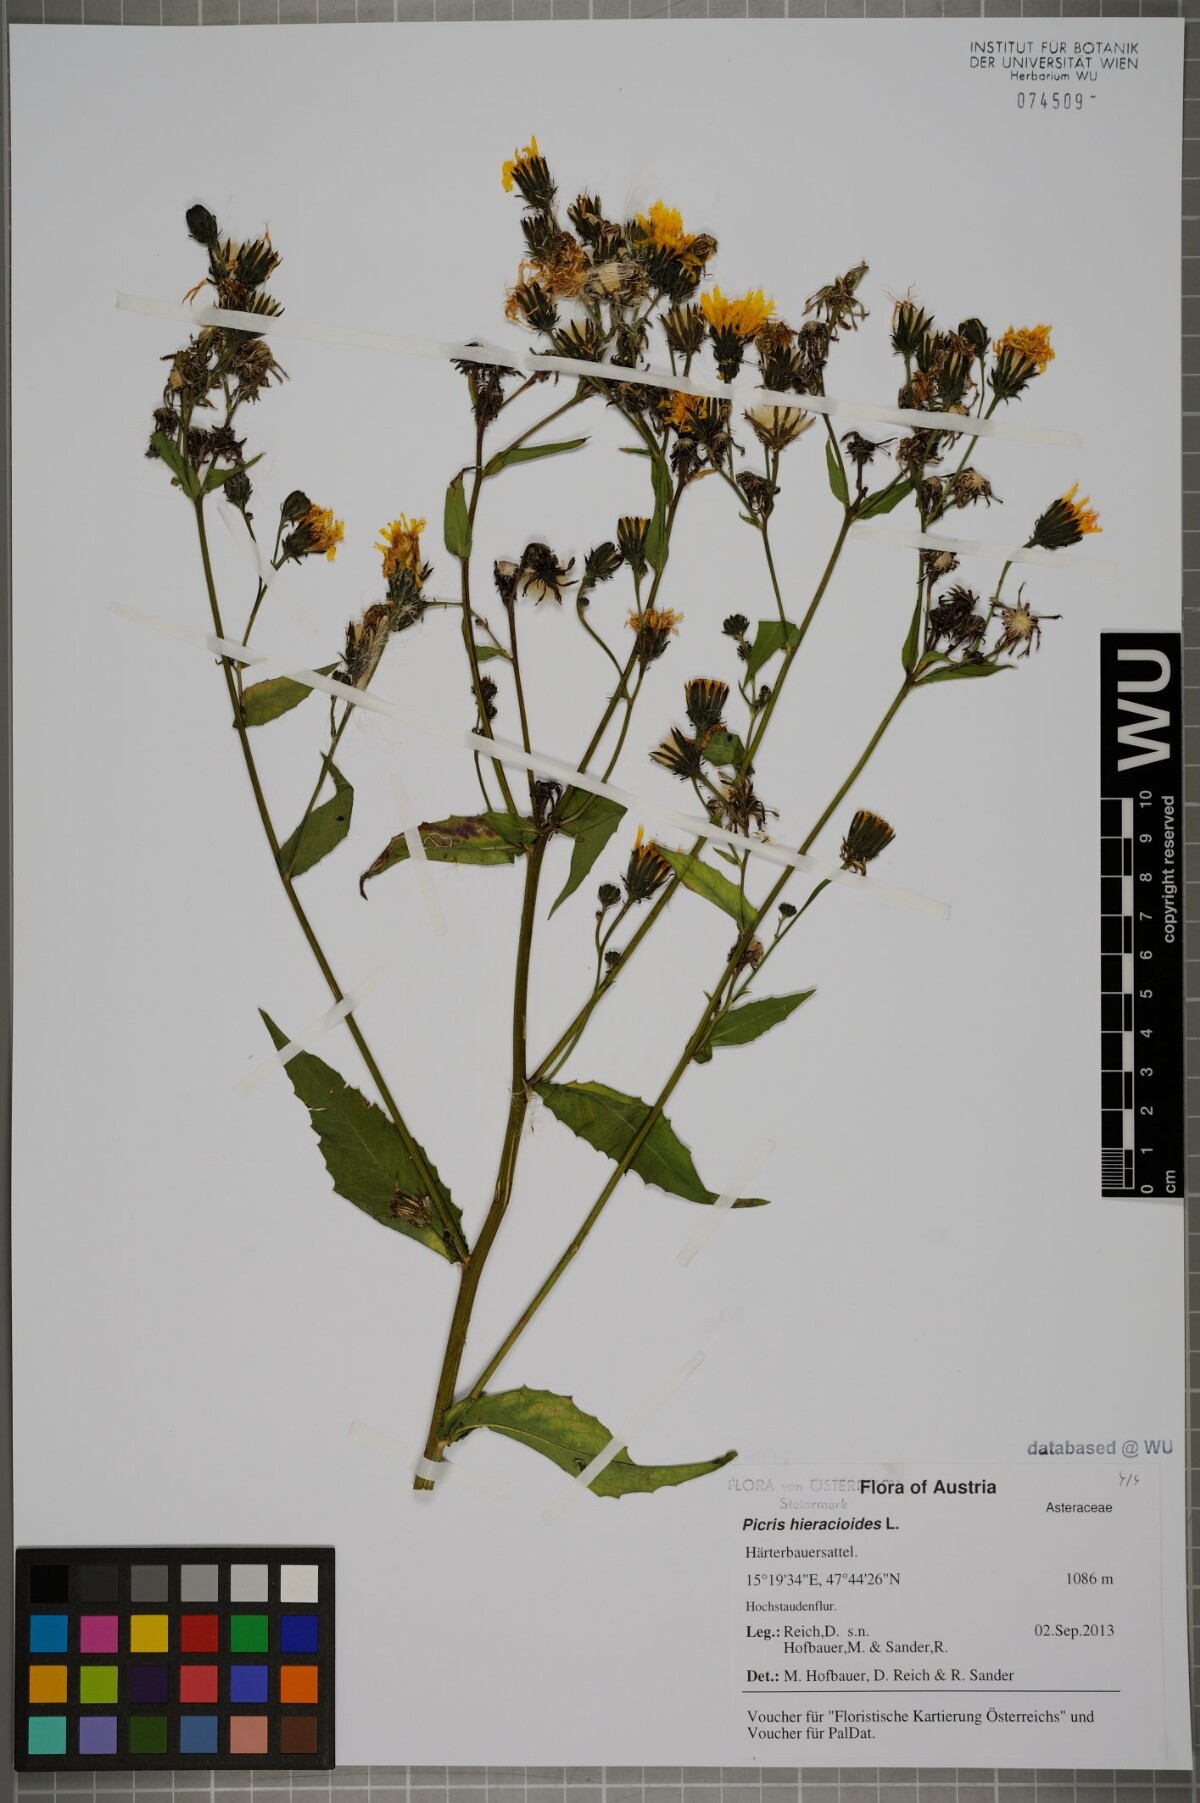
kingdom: Plantae
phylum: Tracheophyta
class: Magnoliopsida
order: Asterales
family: Asteraceae
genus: Picris
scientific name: Picris hieracioides
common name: Hawkweed oxtongue
